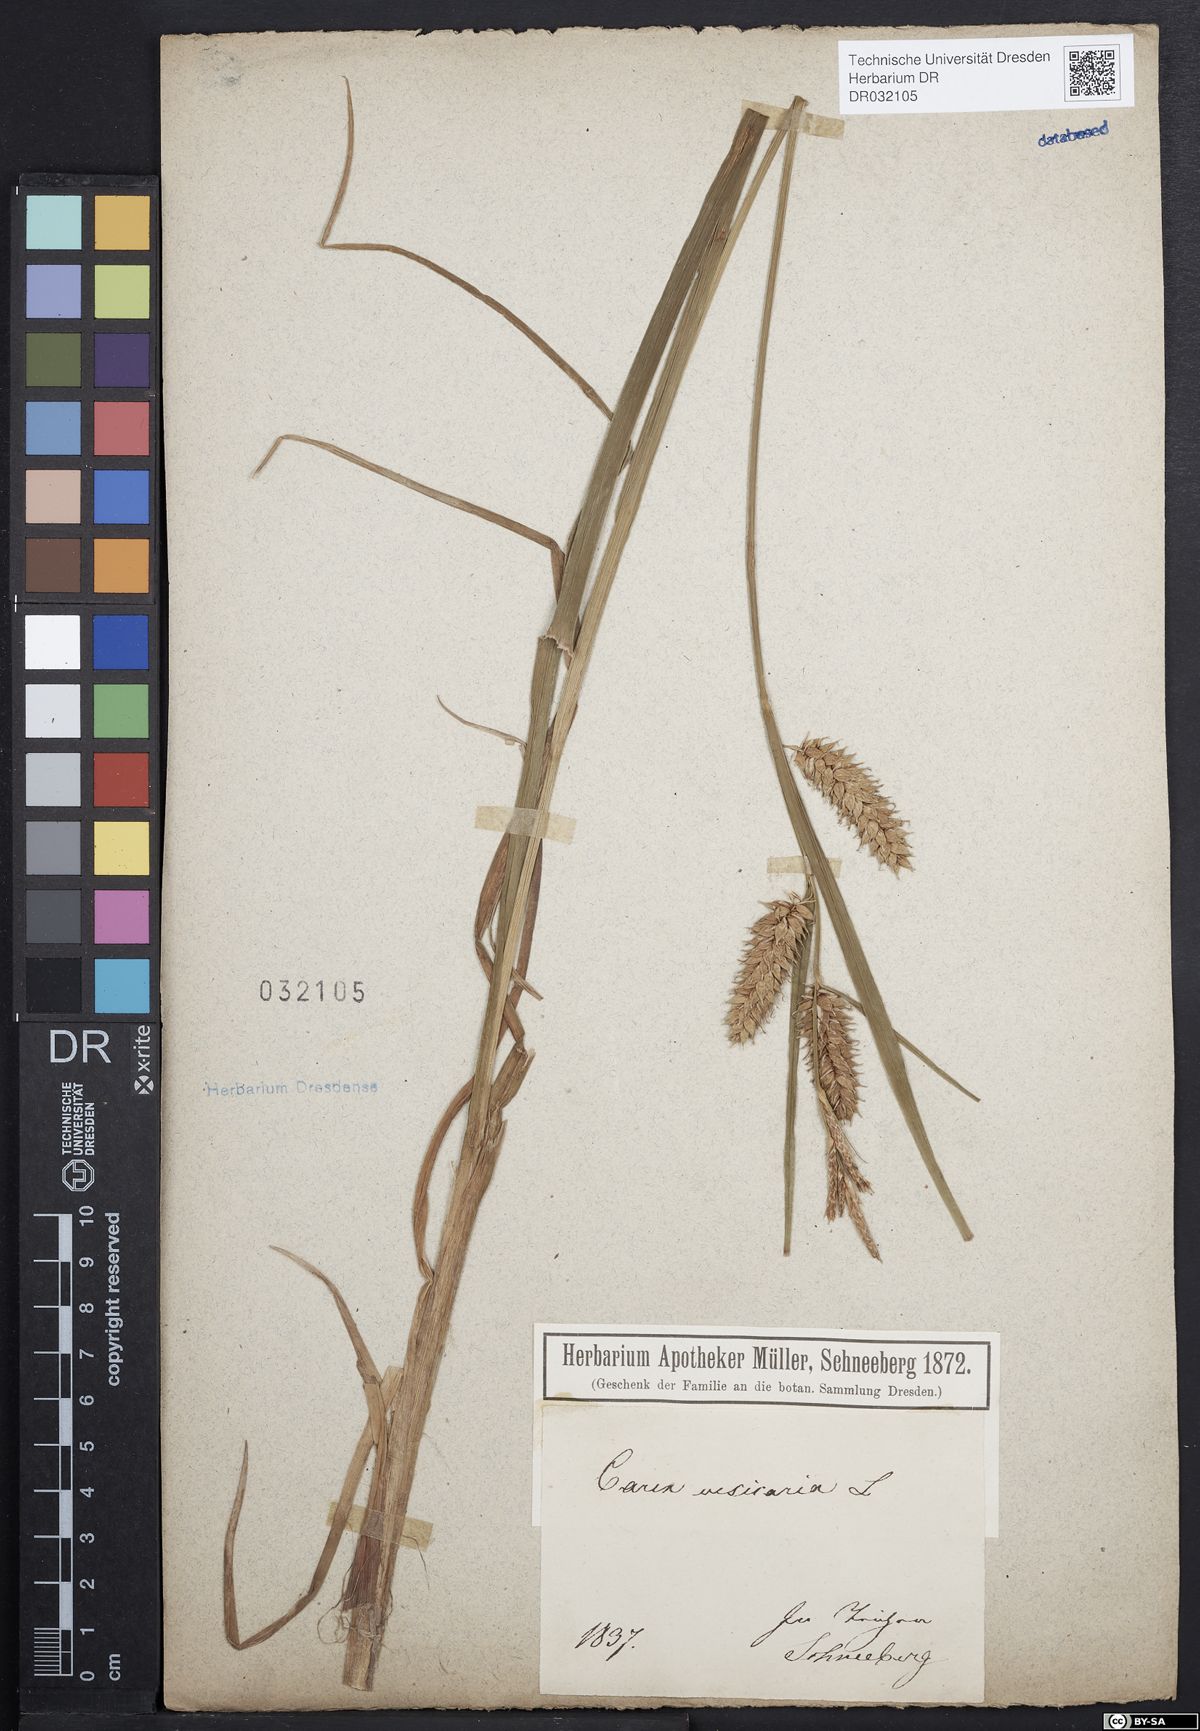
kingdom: Plantae
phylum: Tracheophyta
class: Liliopsida
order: Poales
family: Cyperaceae
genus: Carex
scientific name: Carex vesicaria
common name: Bladder-sedge
